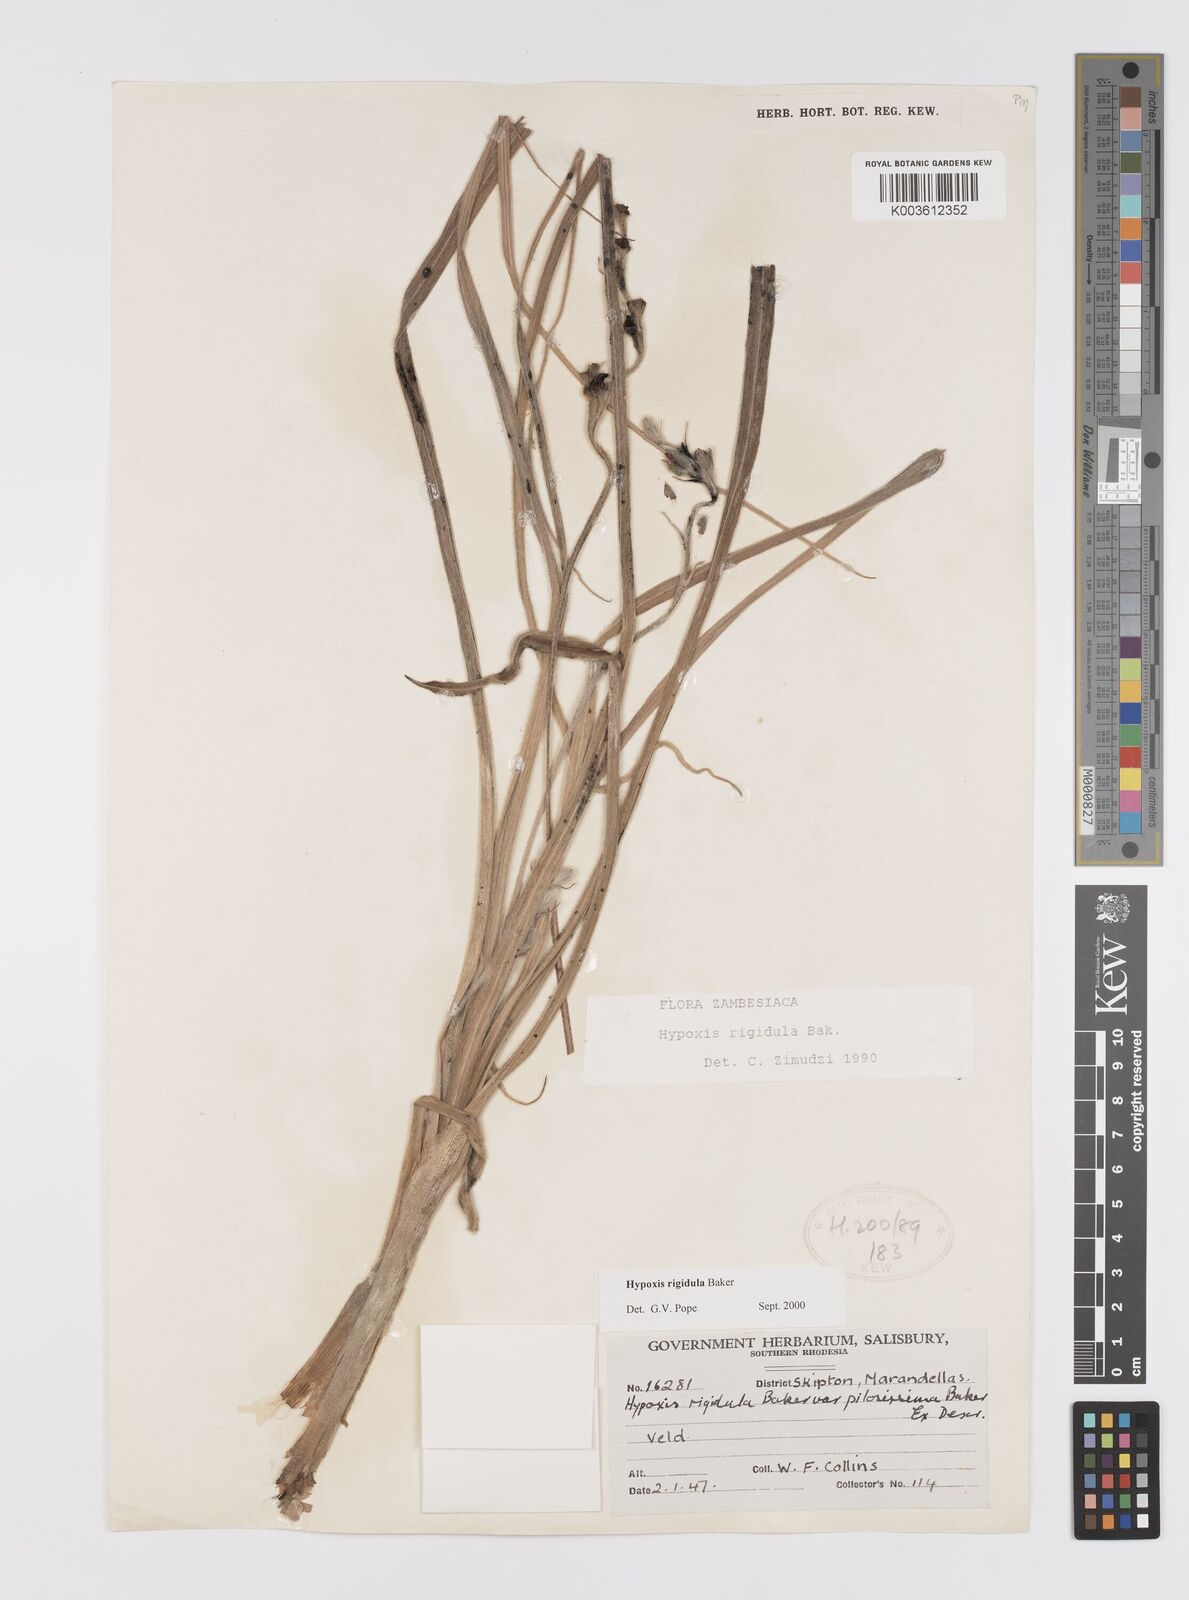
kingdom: Plantae
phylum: Tracheophyta
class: Liliopsida
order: Asparagales
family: Hypoxidaceae
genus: Hypoxis
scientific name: Hypoxis rigidula
